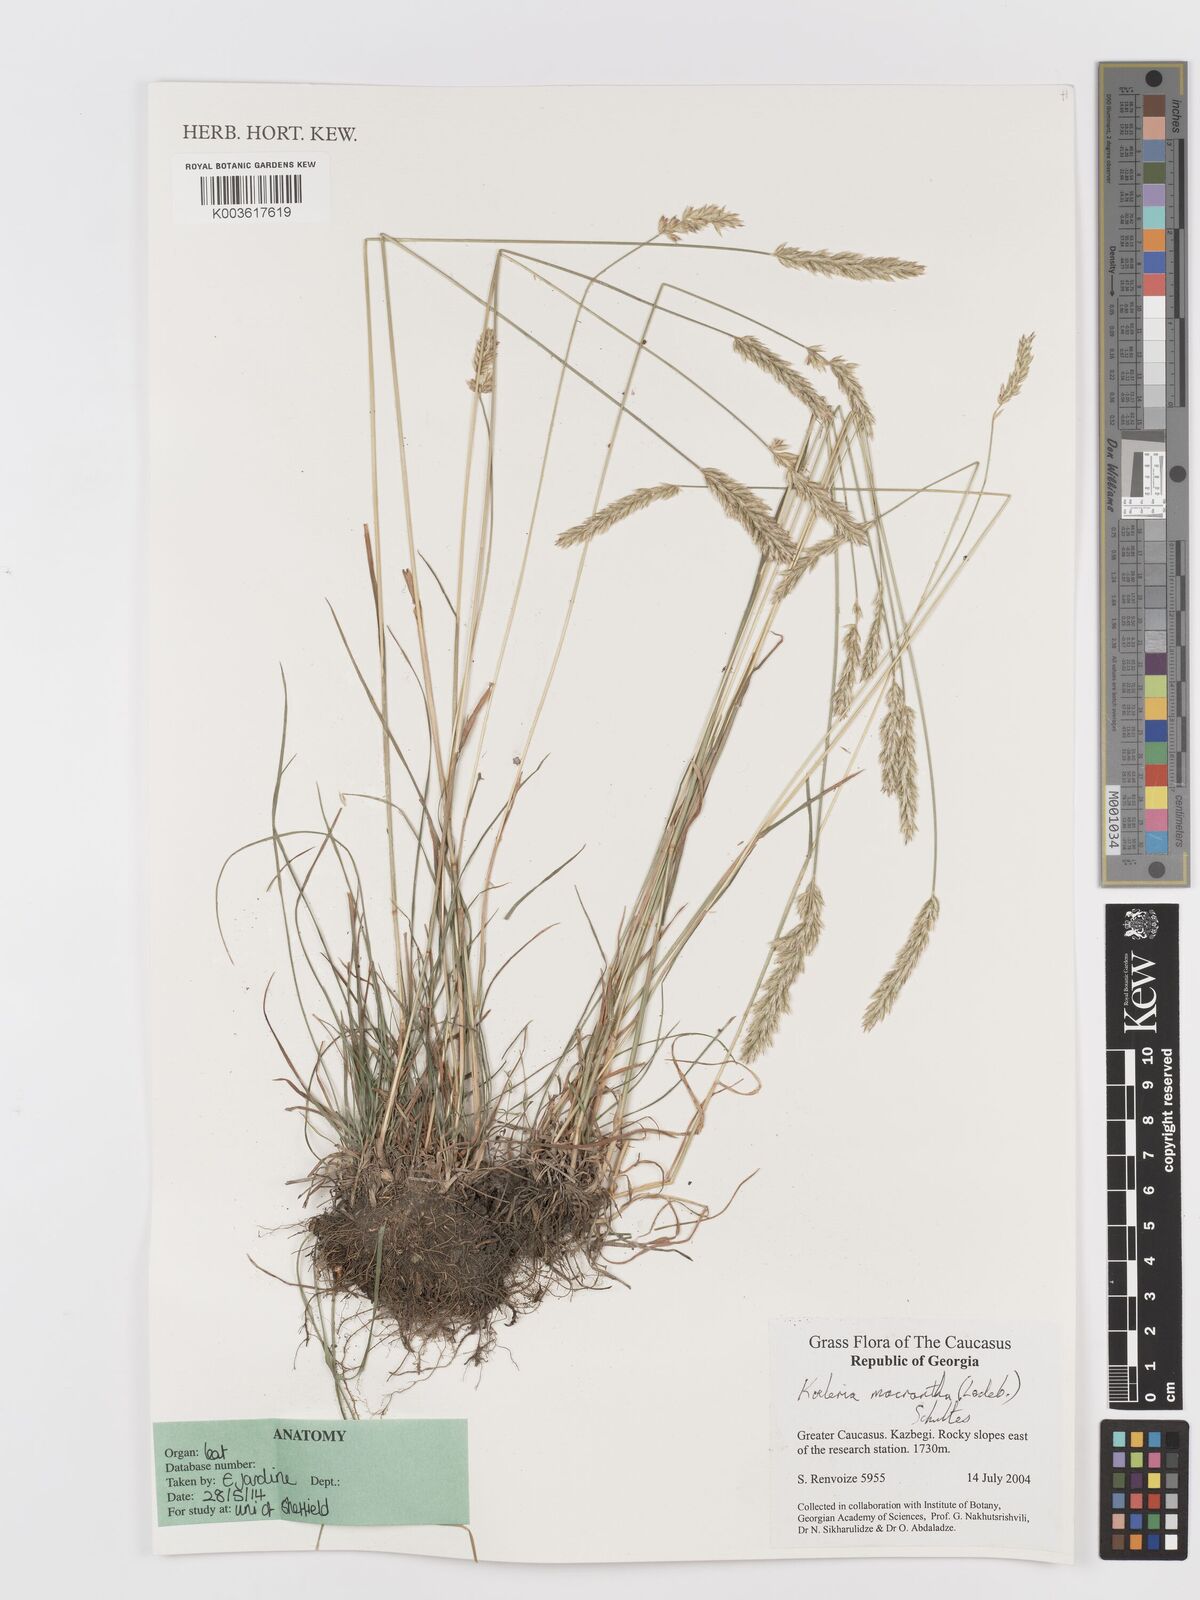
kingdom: Plantae
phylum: Tracheophyta
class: Liliopsida
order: Poales
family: Poaceae
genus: Koeleria
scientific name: Koeleria macrantha
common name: Crested hair-grass
